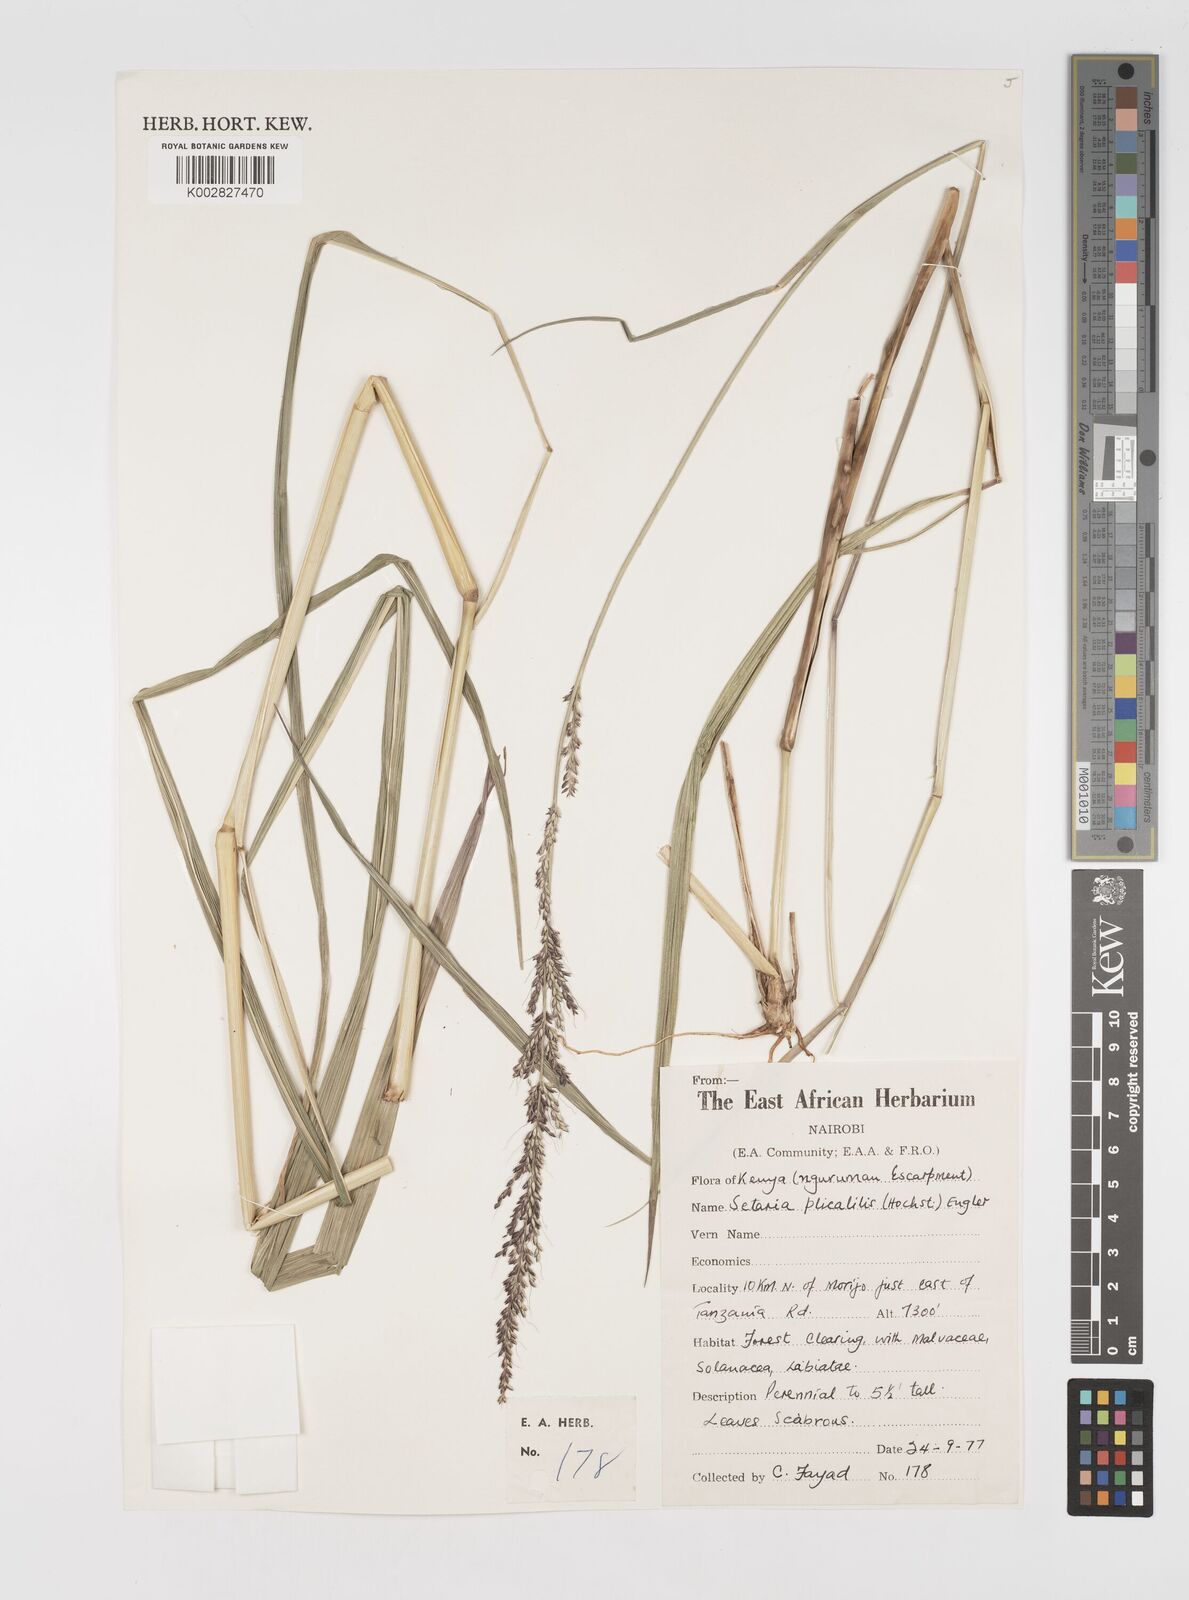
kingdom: Plantae
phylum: Tracheophyta
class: Liliopsida
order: Poales
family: Poaceae
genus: Setaria
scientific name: Setaria megaphylla
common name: Bigleaf bristlegrass
